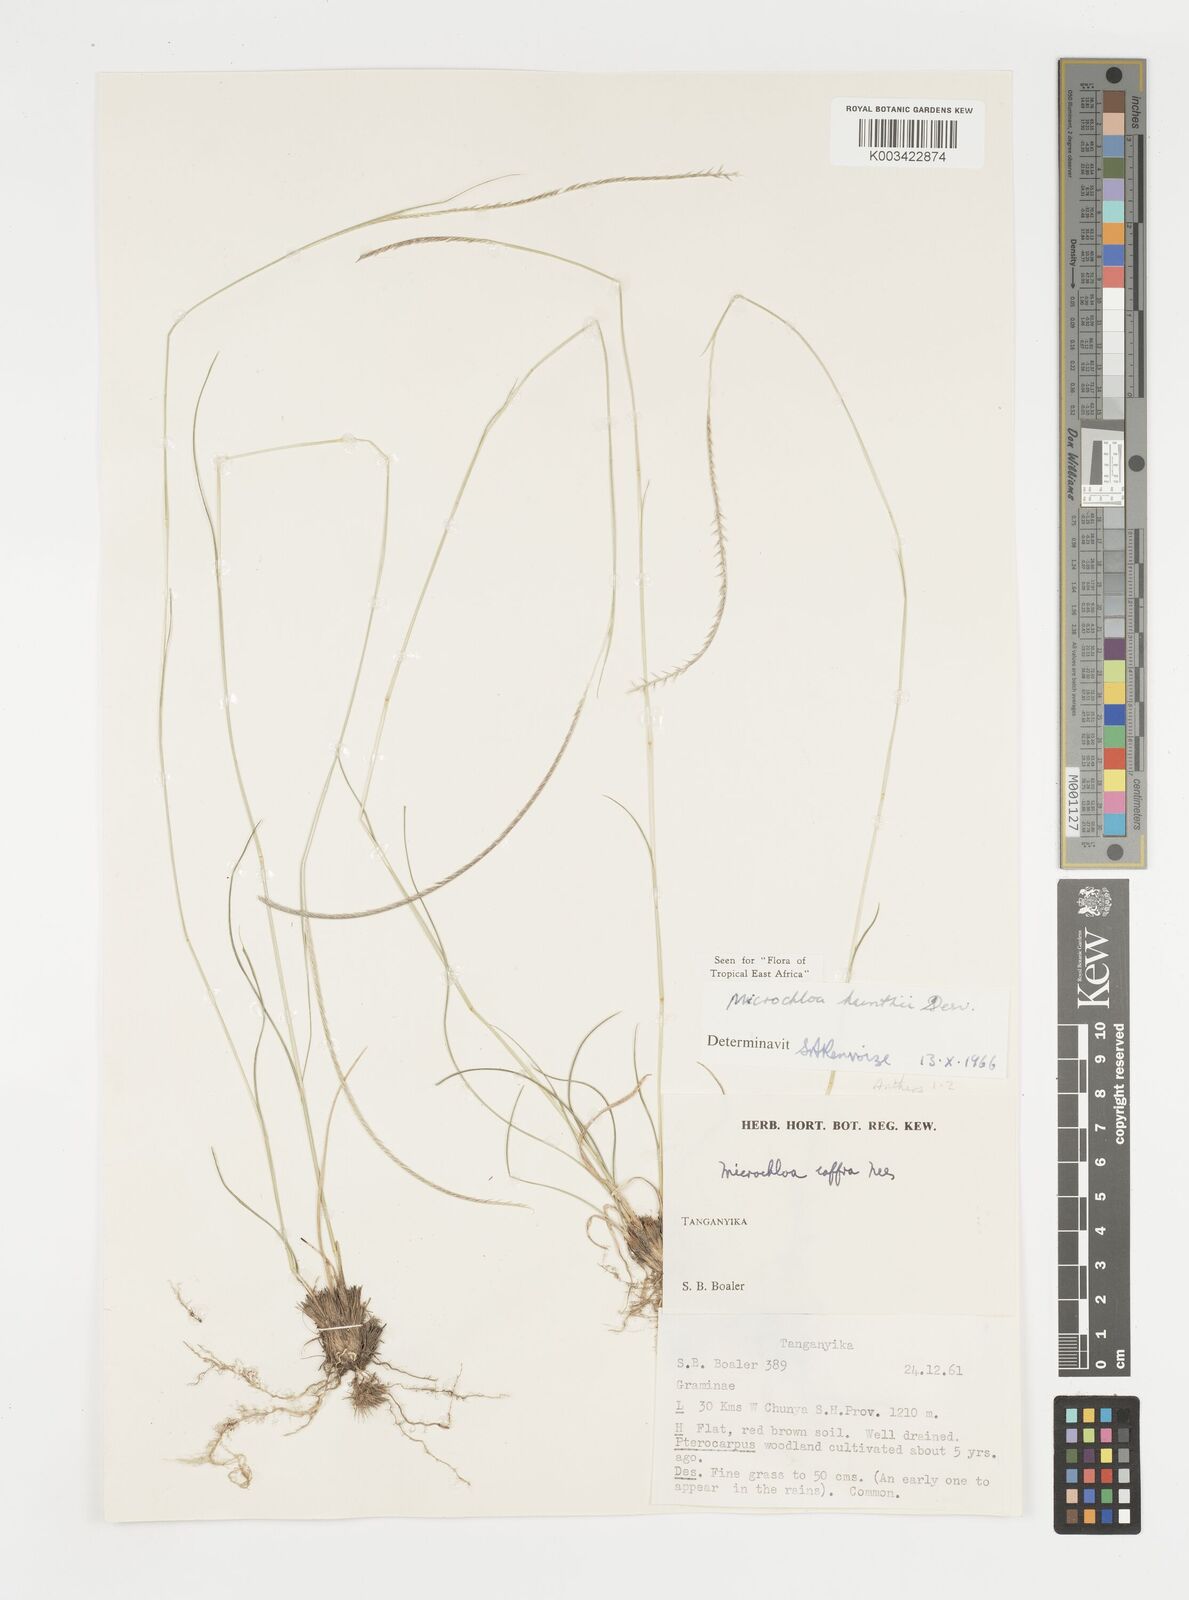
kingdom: Plantae
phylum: Tracheophyta
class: Liliopsida
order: Poales
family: Poaceae
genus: Microchloa
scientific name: Microchloa kunthii
